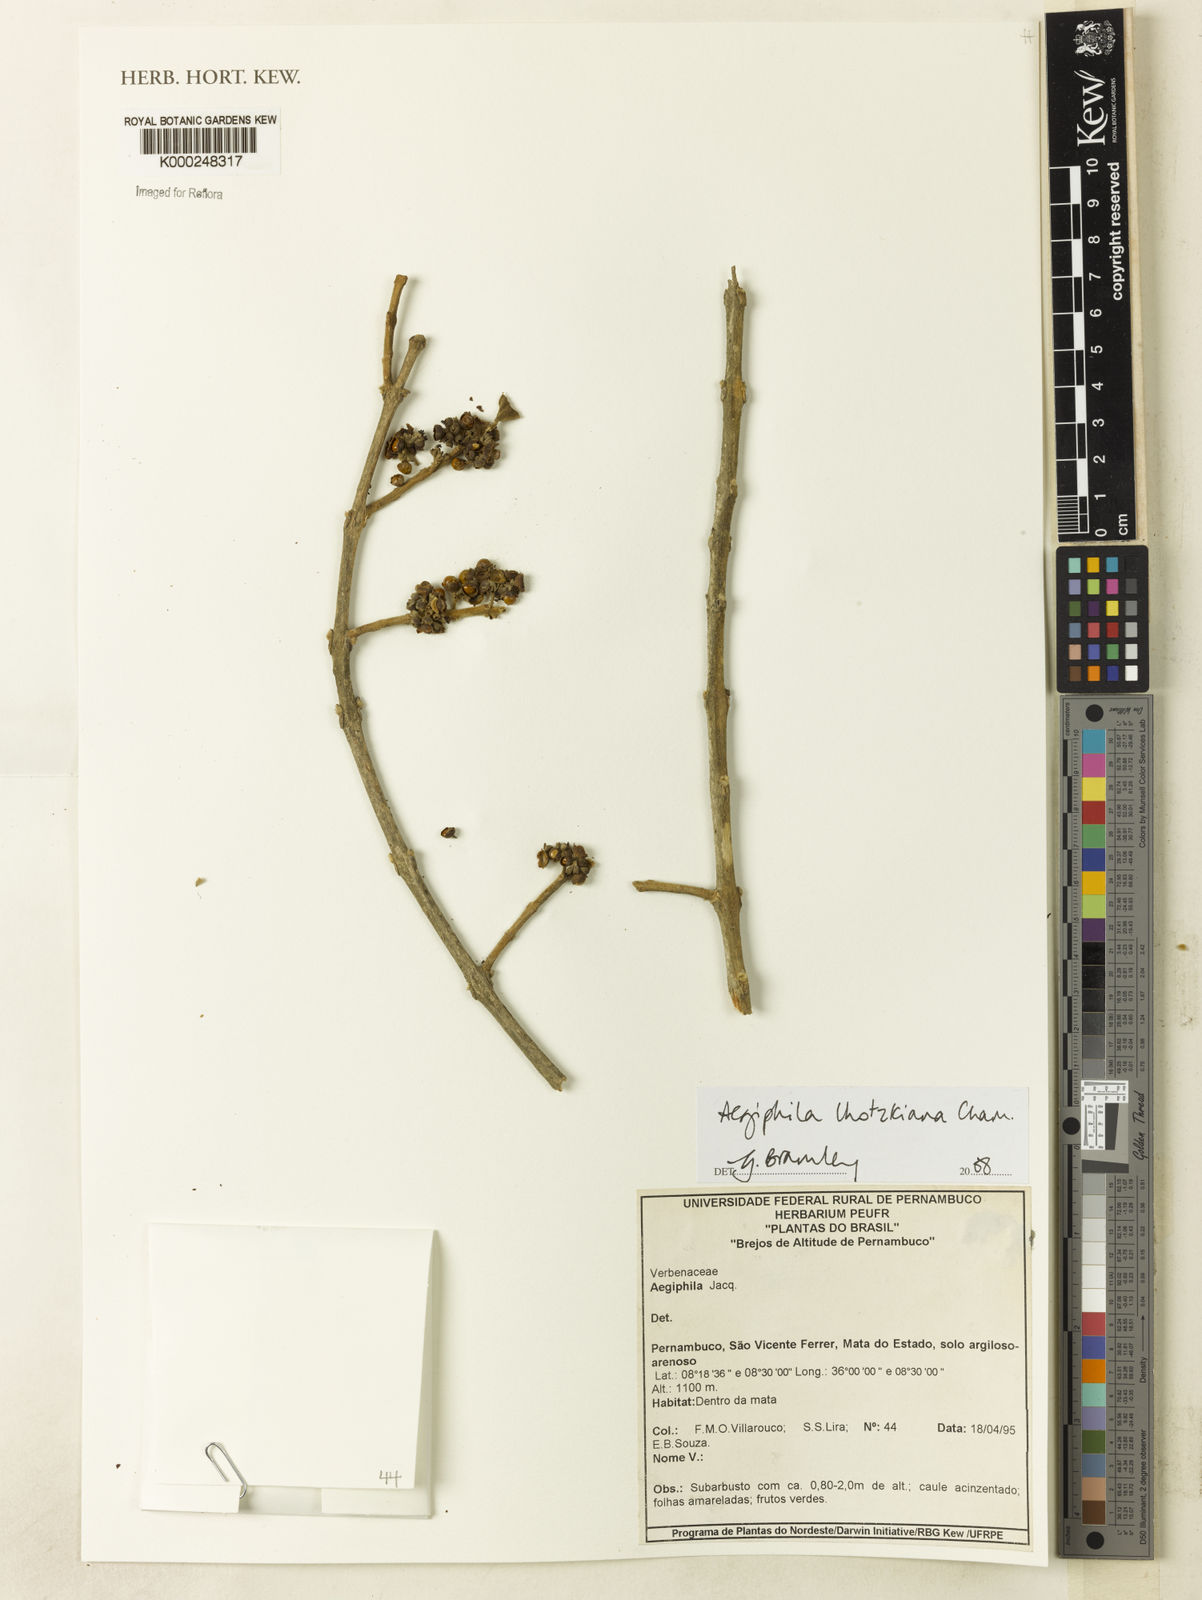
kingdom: Plantae
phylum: Tracheophyta
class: Magnoliopsida
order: Lamiales
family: Lamiaceae
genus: Aegiphila
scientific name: Aegiphila verticillata
